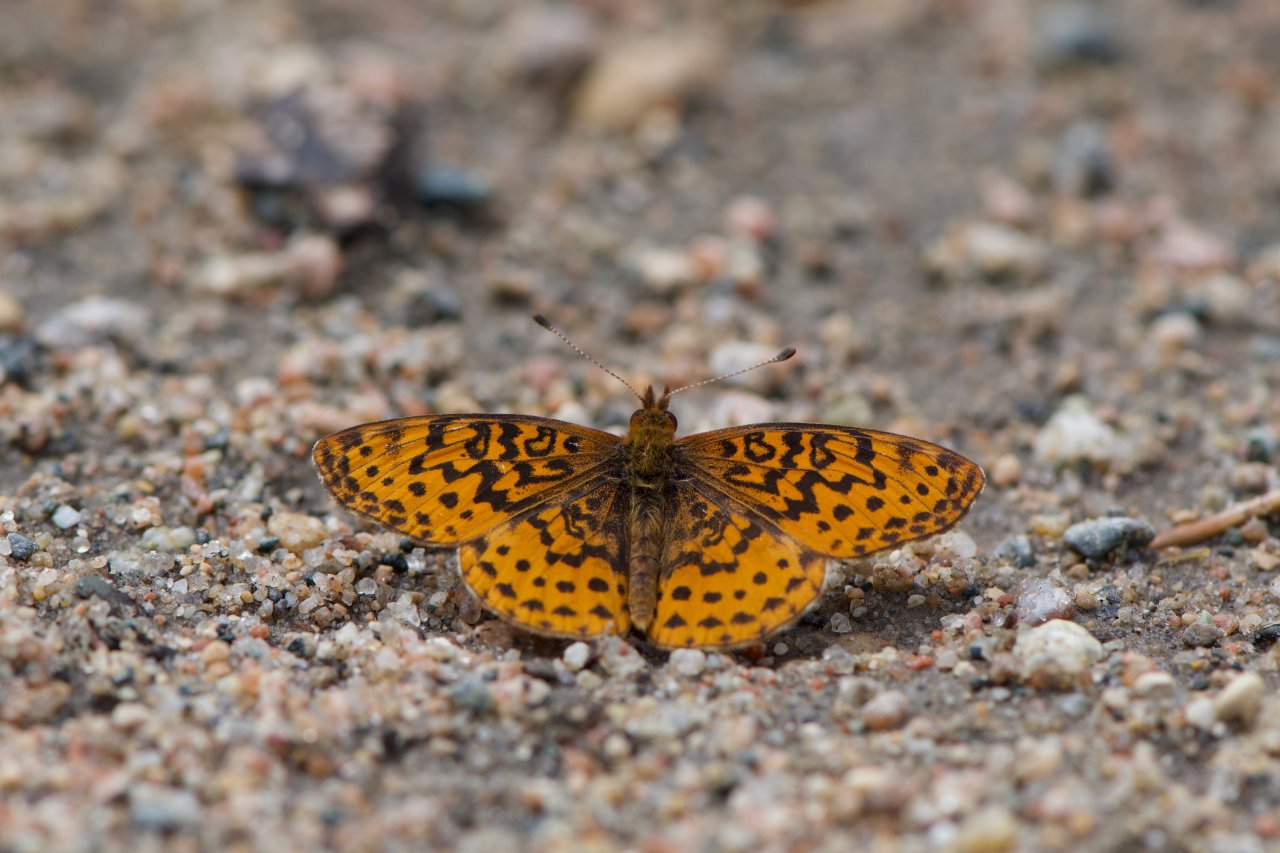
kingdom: Animalia
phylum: Arthropoda
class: Insecta
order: Lepidoptera
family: Nymphalidae
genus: Clossiana
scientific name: Clossiana toddi
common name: Meadow Fritillary
